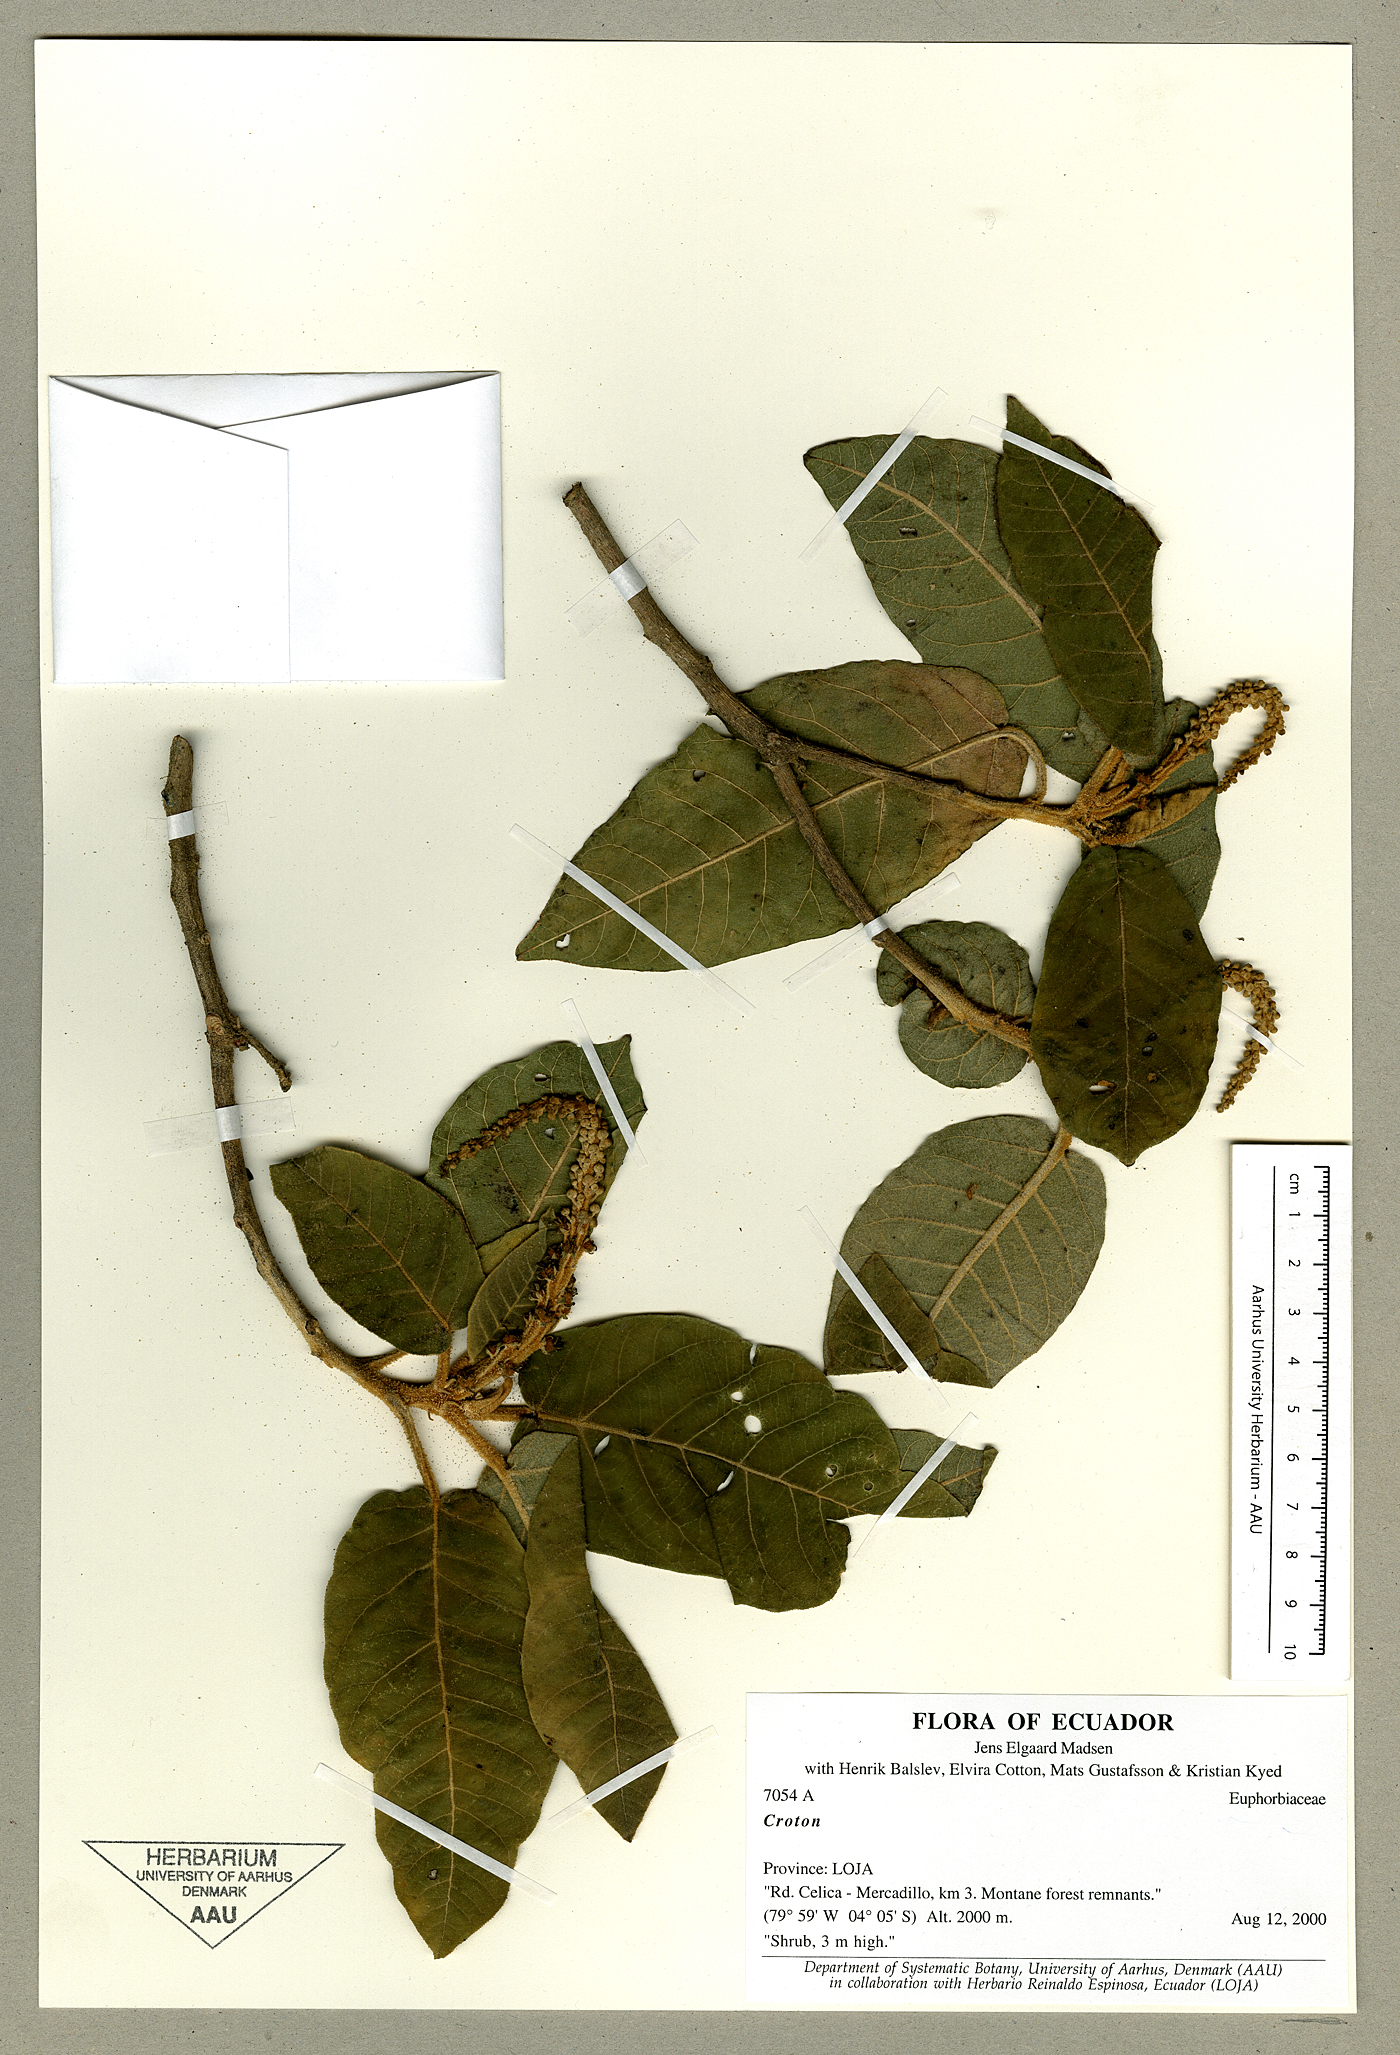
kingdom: Plantae
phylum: Tracheophyta
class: Magnoliopsida
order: Malpighiales
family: Euphorbiaceae
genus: Croton
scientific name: Croton
